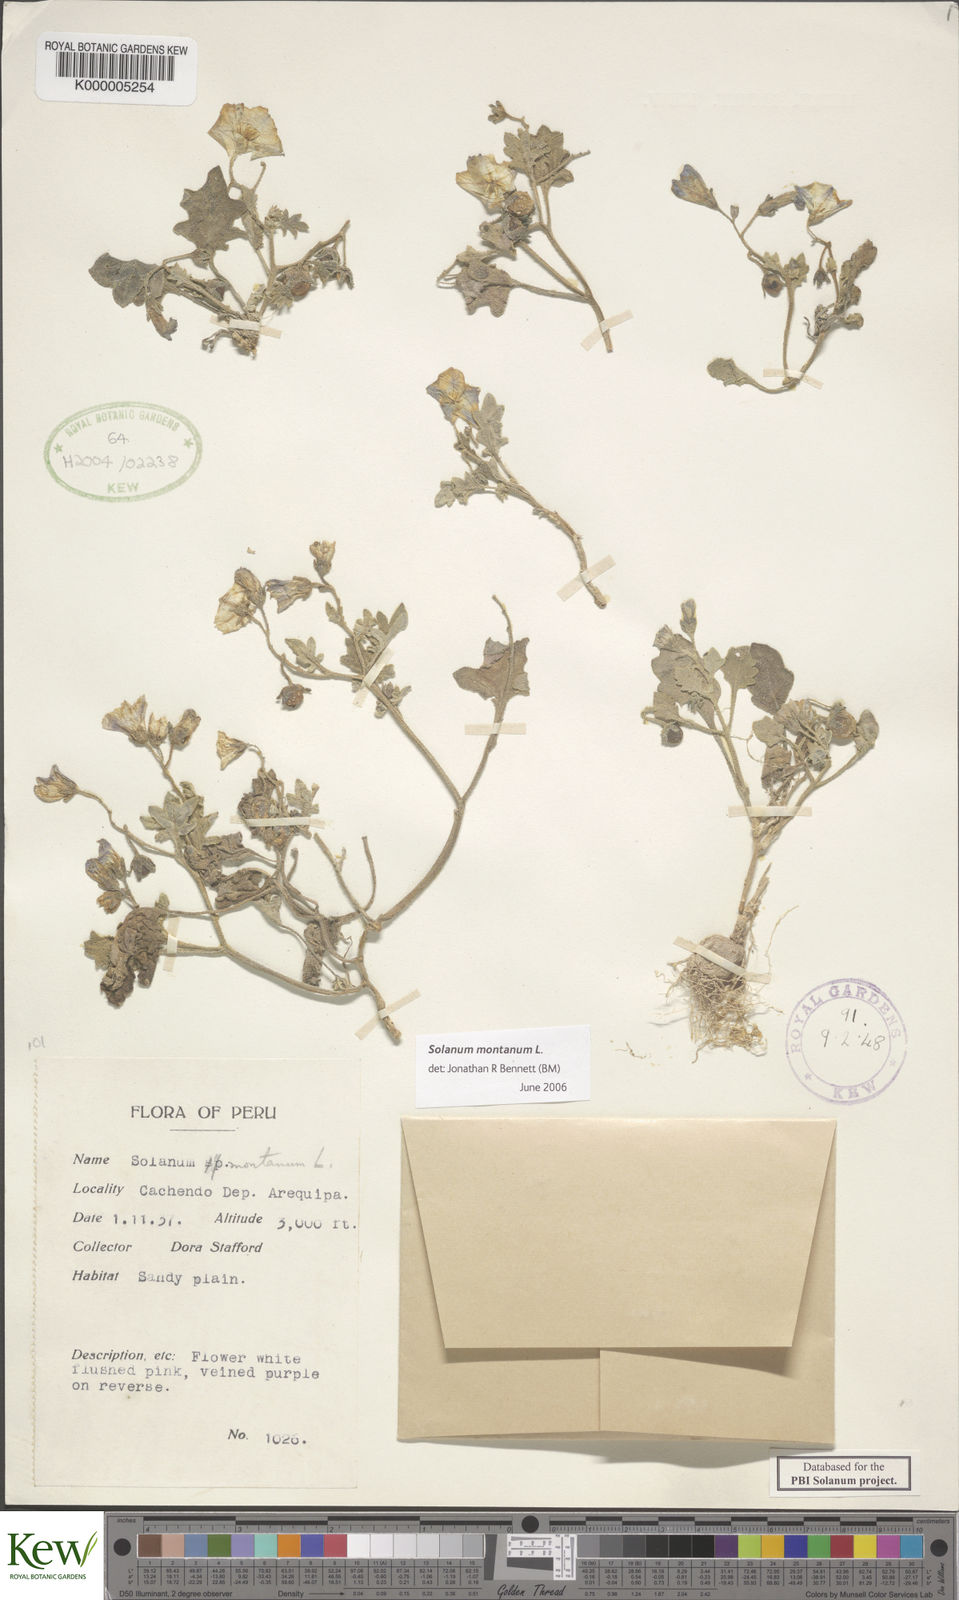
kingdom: Plantae
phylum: Tracheophyta
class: Magnoliopsida
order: Solanales
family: Solanaceae
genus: Solanum
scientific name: Solanum montanum
